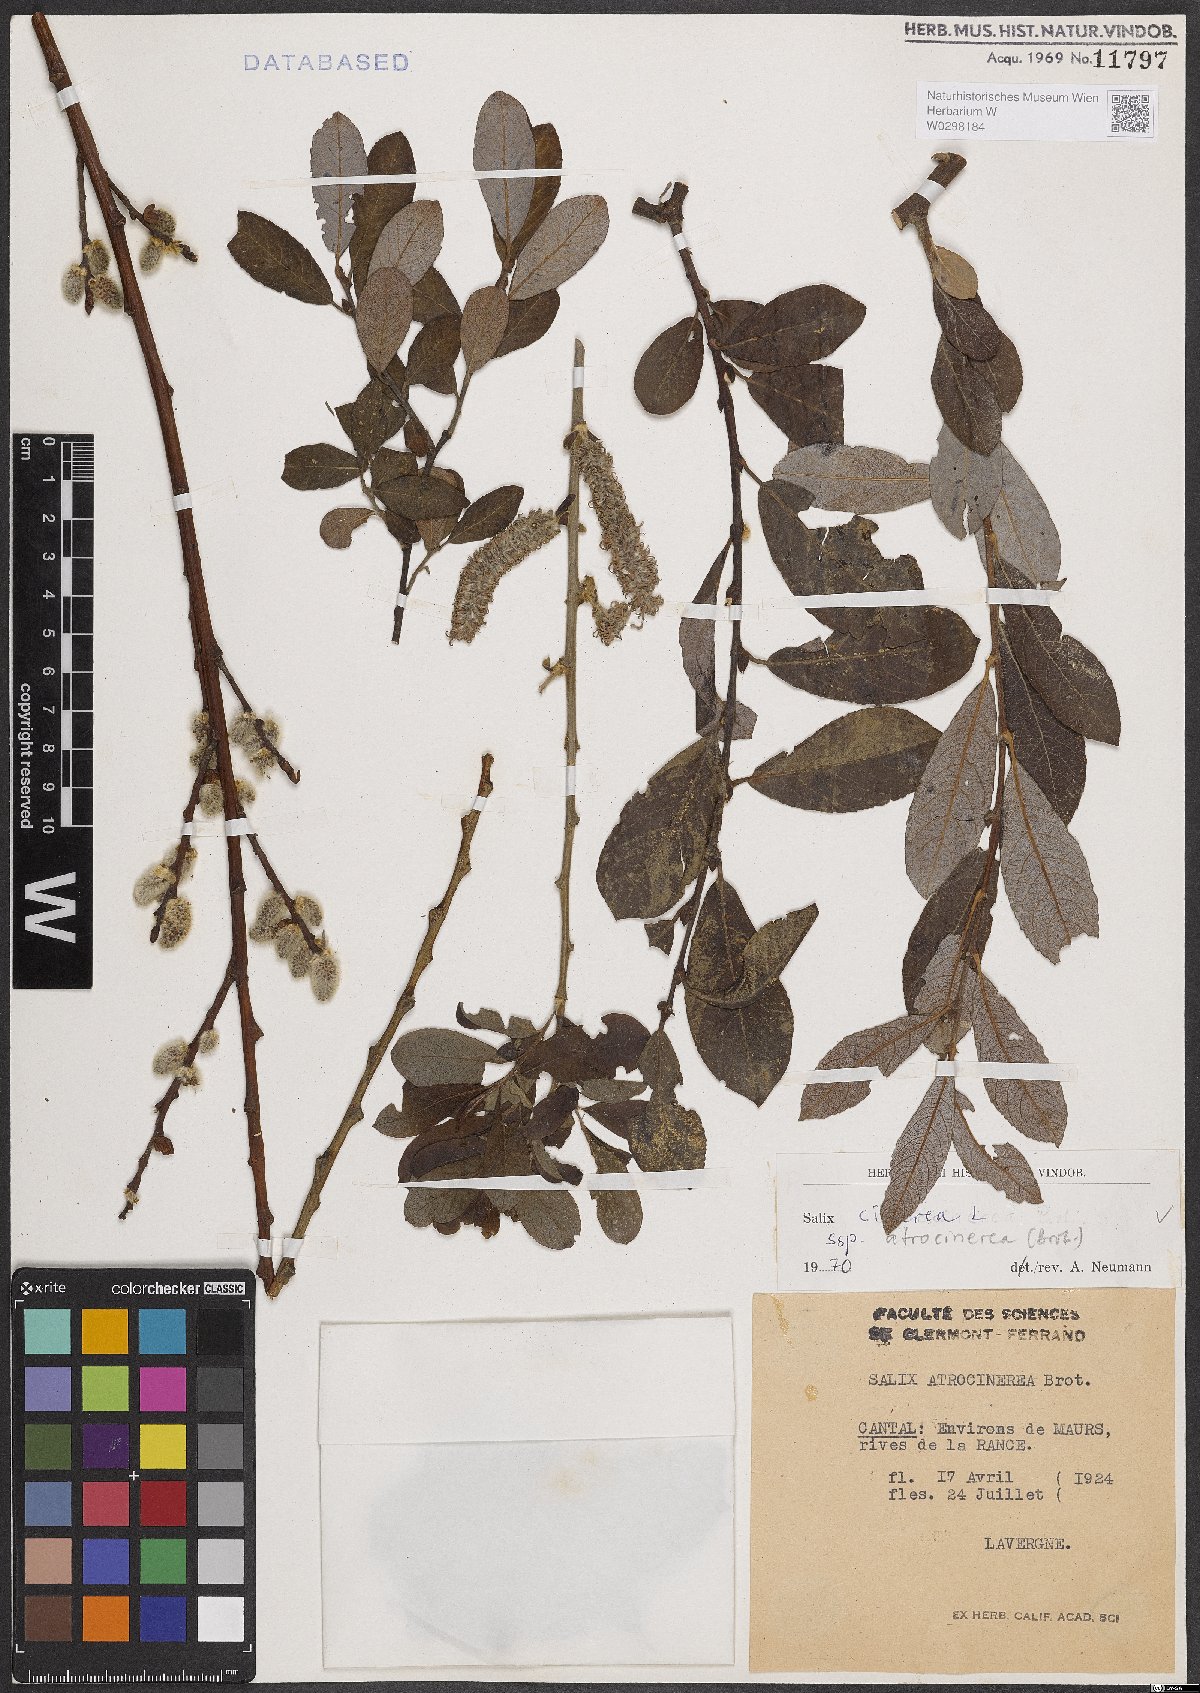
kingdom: Plantae
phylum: Tracheophyta
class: Magnoliopsida
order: Malpighiales
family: Salicaceae
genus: Salix
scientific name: Salix atrocinerea
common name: Rusty willow
